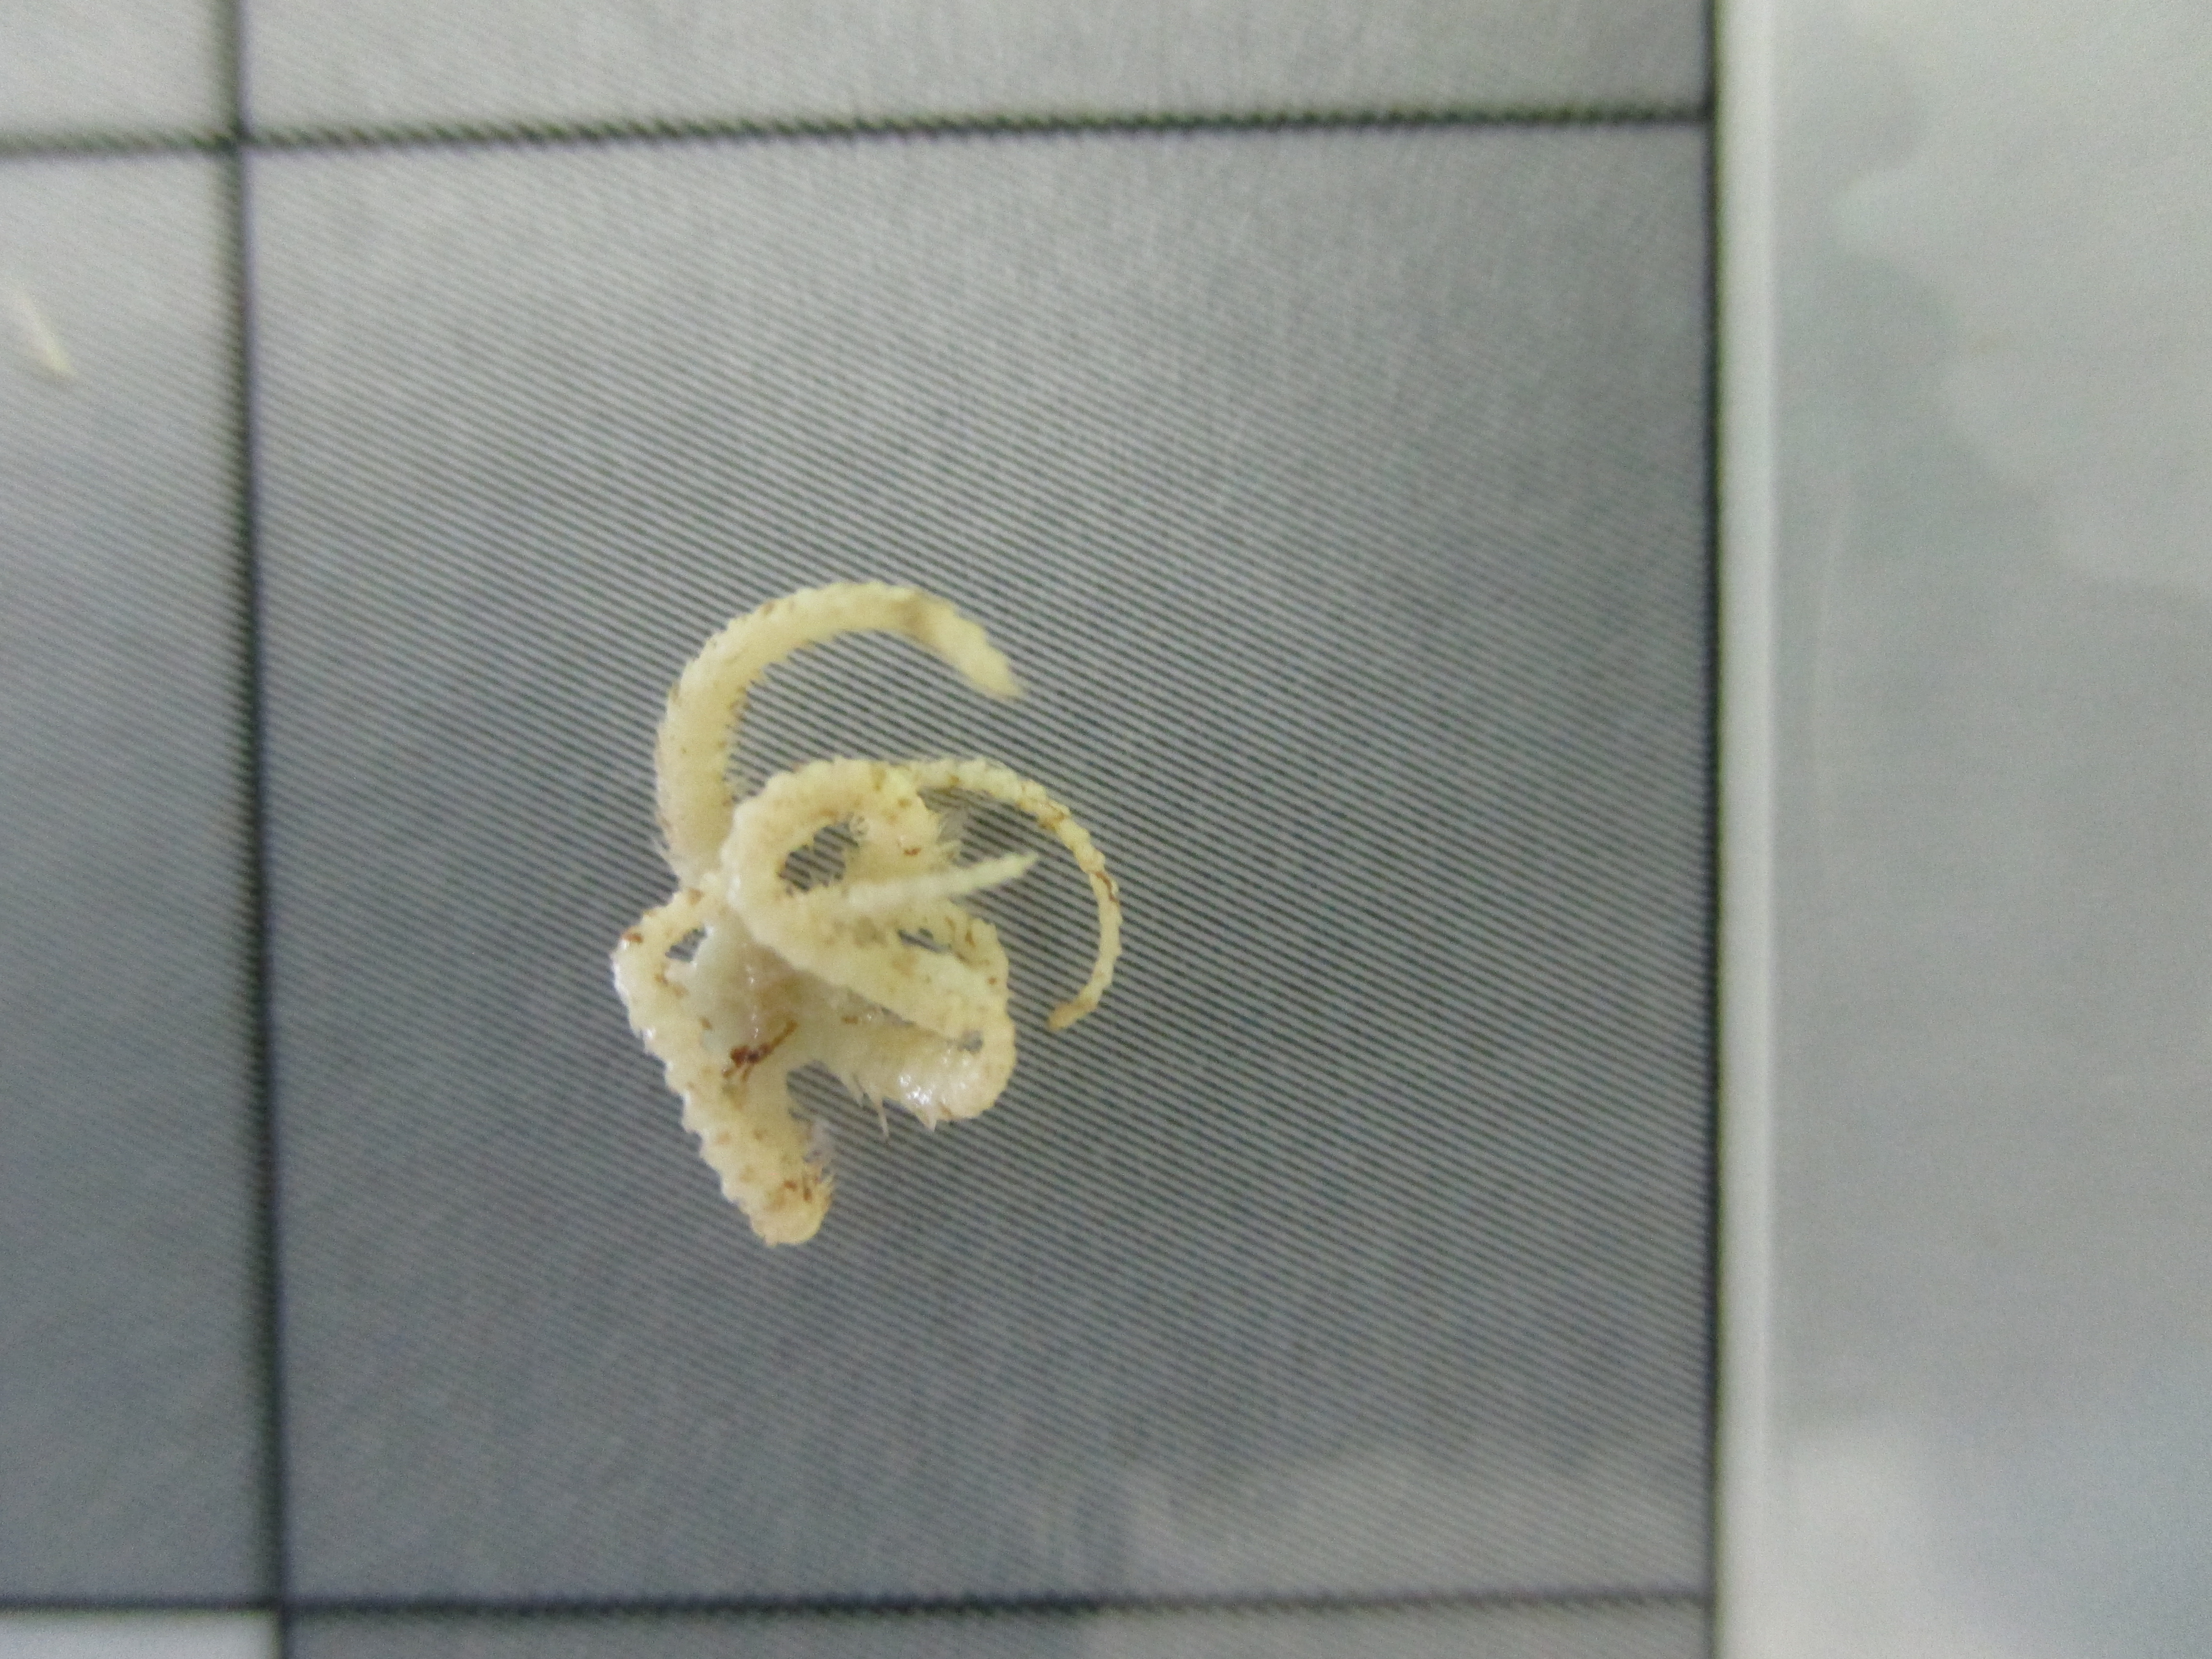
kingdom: Animalia
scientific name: Animalia
